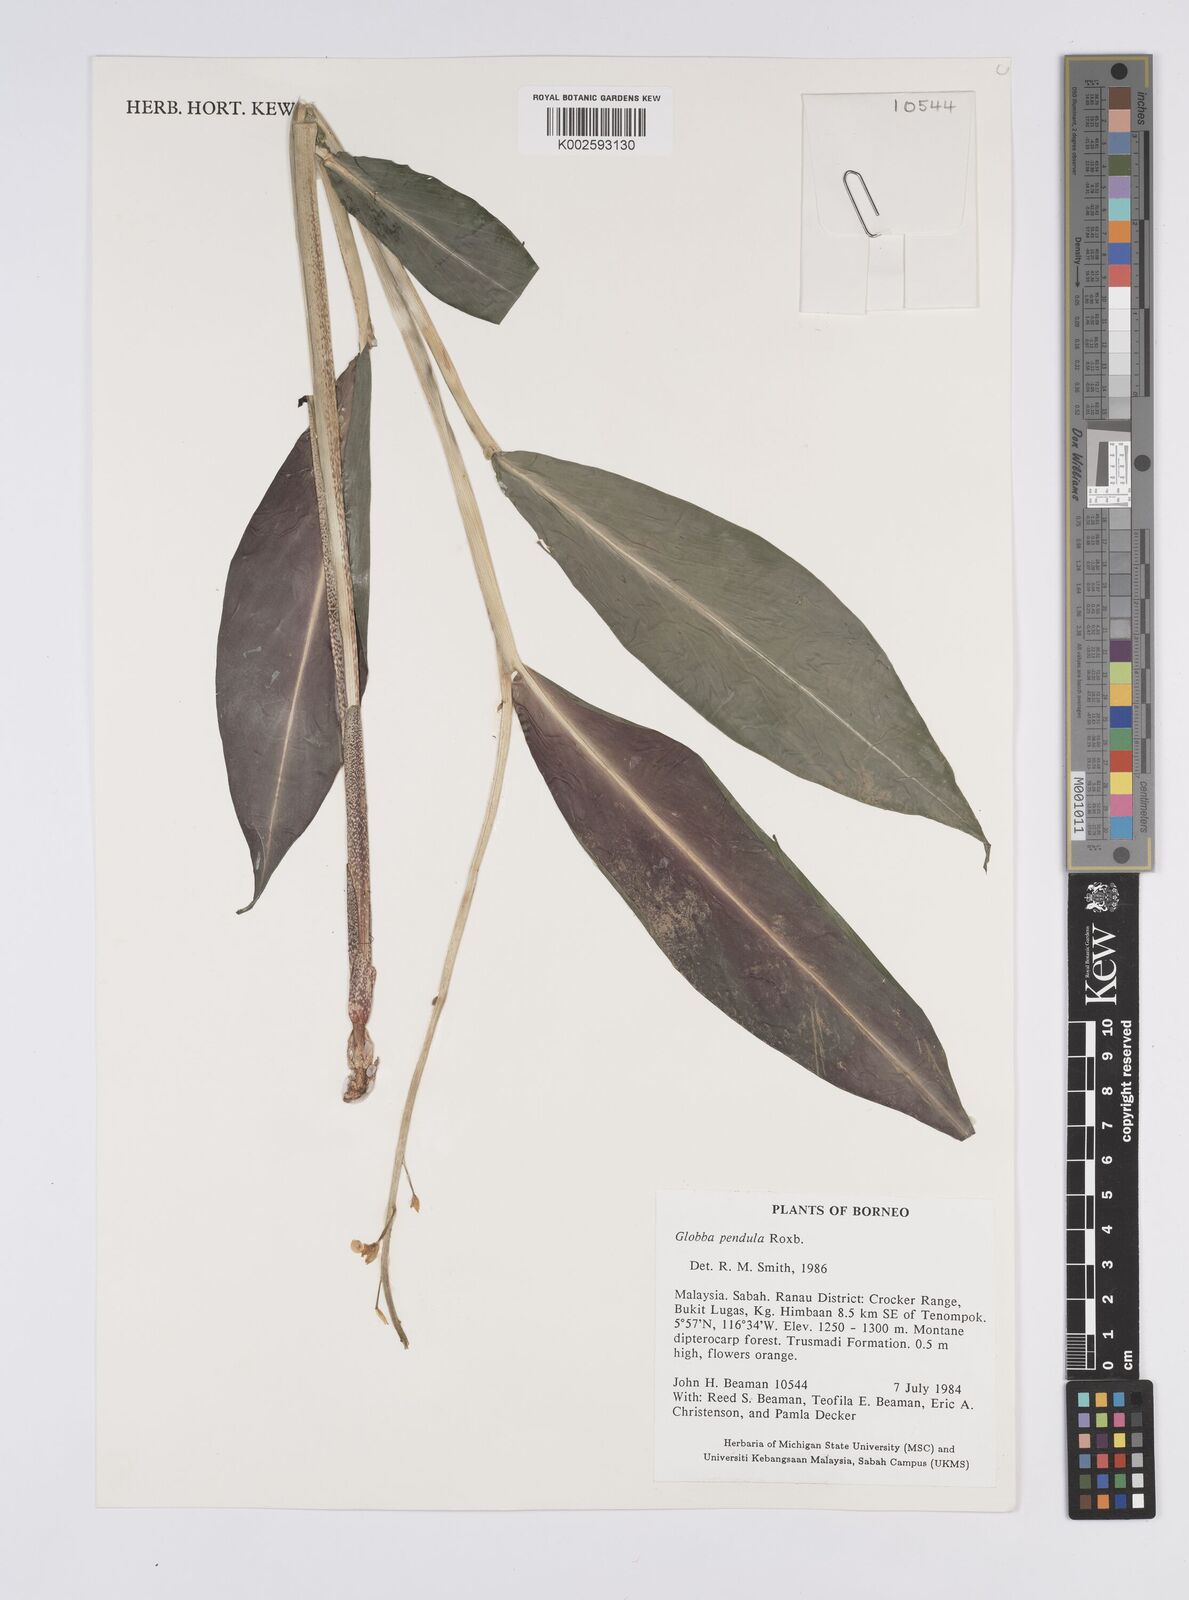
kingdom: Plantae
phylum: Tracheophyta
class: Liliopsida
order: Zingiberales
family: Zingiberaceae
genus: Globba
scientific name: Globba pendula
